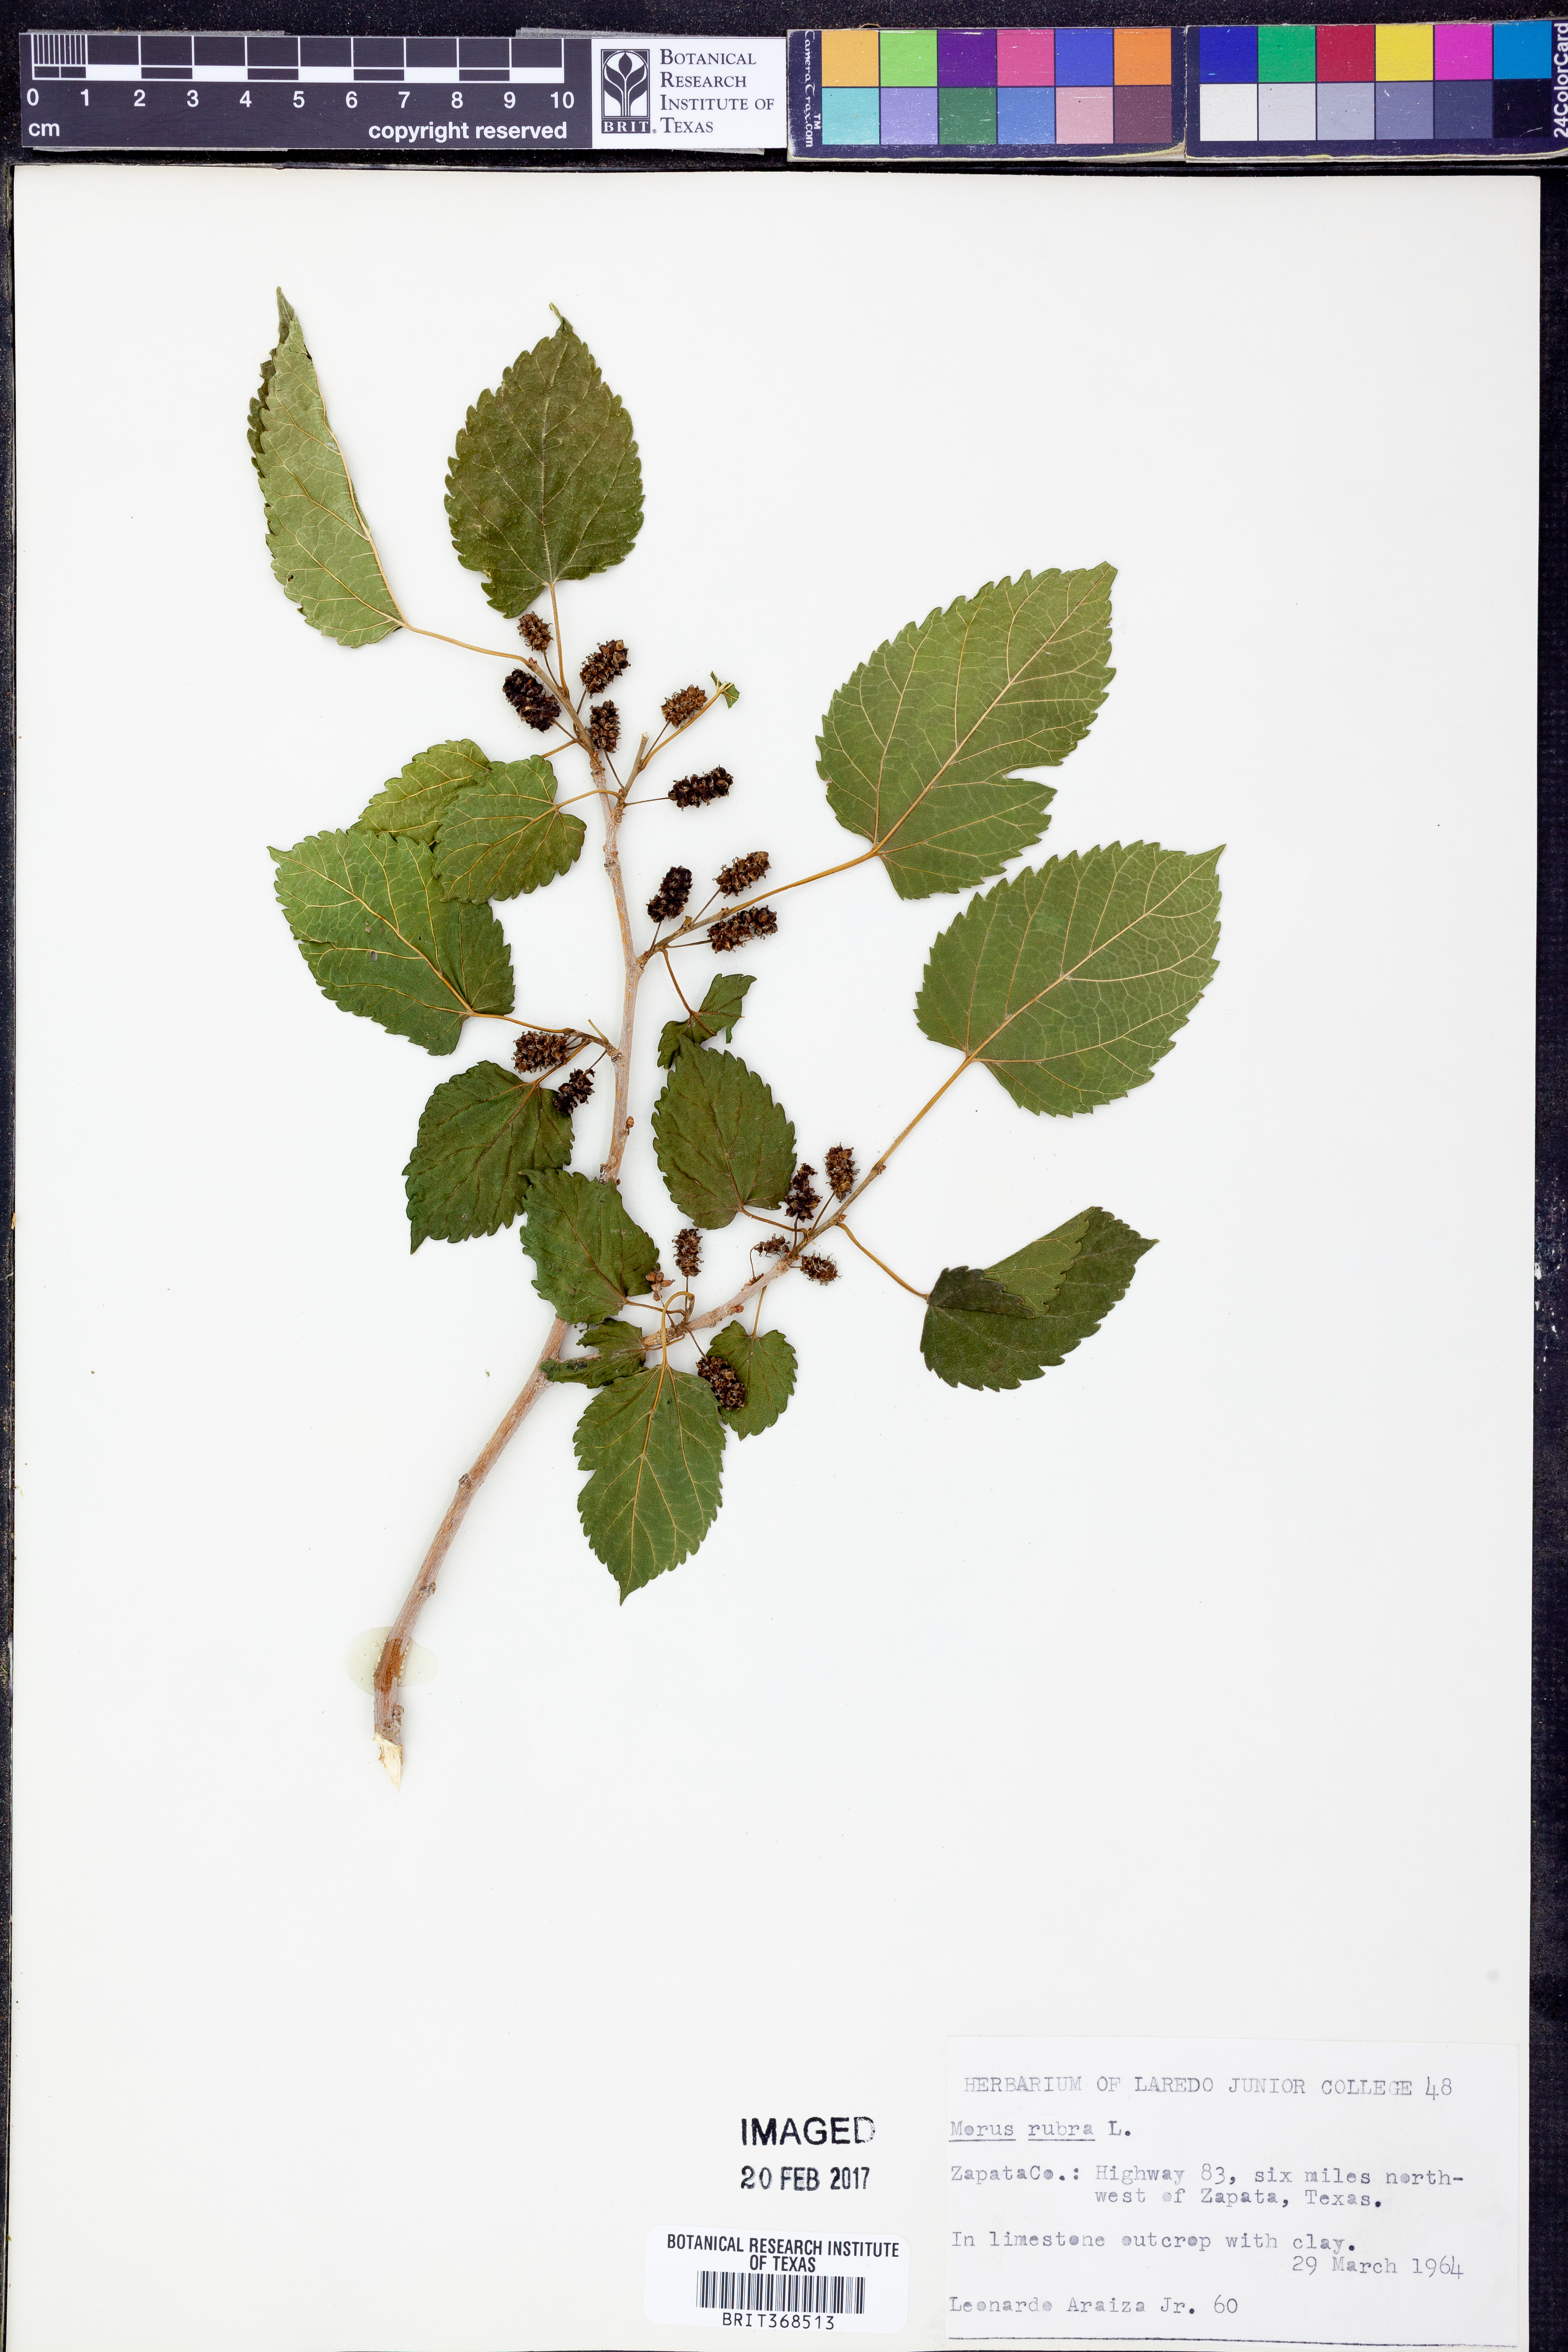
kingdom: Plantae
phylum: Tracheophyta
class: Magnoliopsida
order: Rosales
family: Moraceae
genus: Morus
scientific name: Morus rubra
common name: Red mulberry
